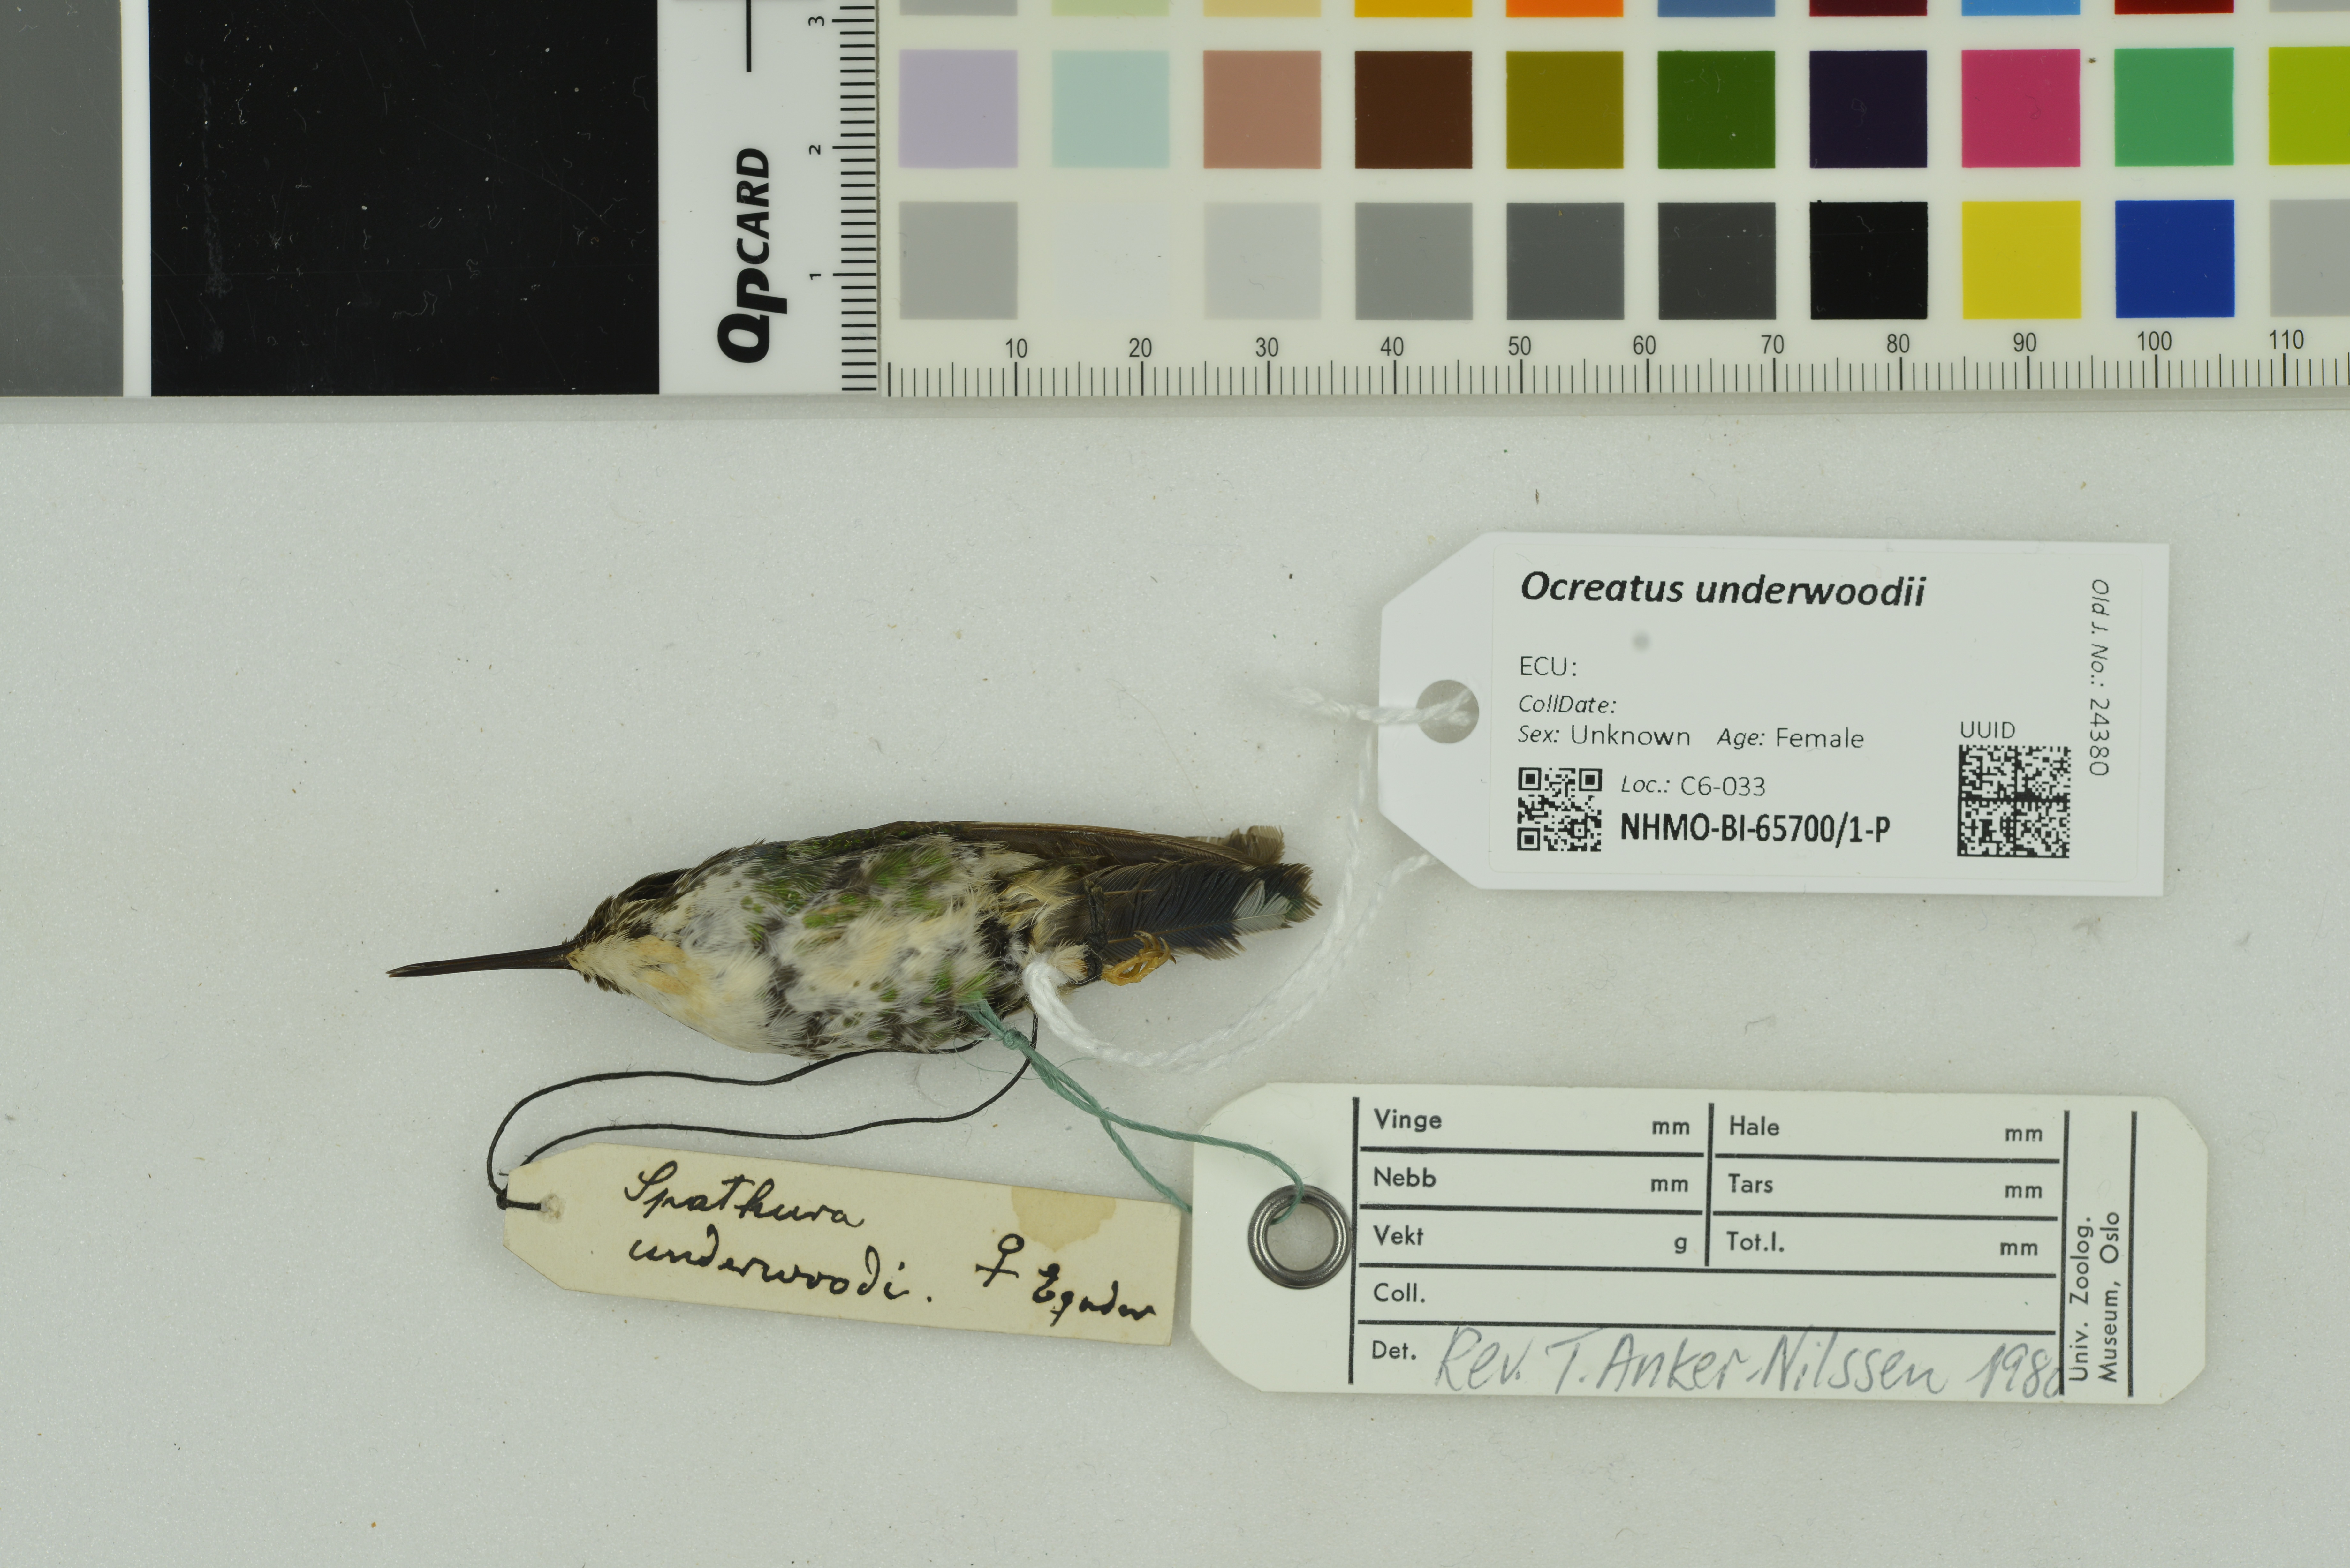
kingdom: Animalia
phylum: Chordata
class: Aves
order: Apodiformes
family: Trochilidae
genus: Ocreatus
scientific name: Ocreatus underwoodii
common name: Booted racket-tail
